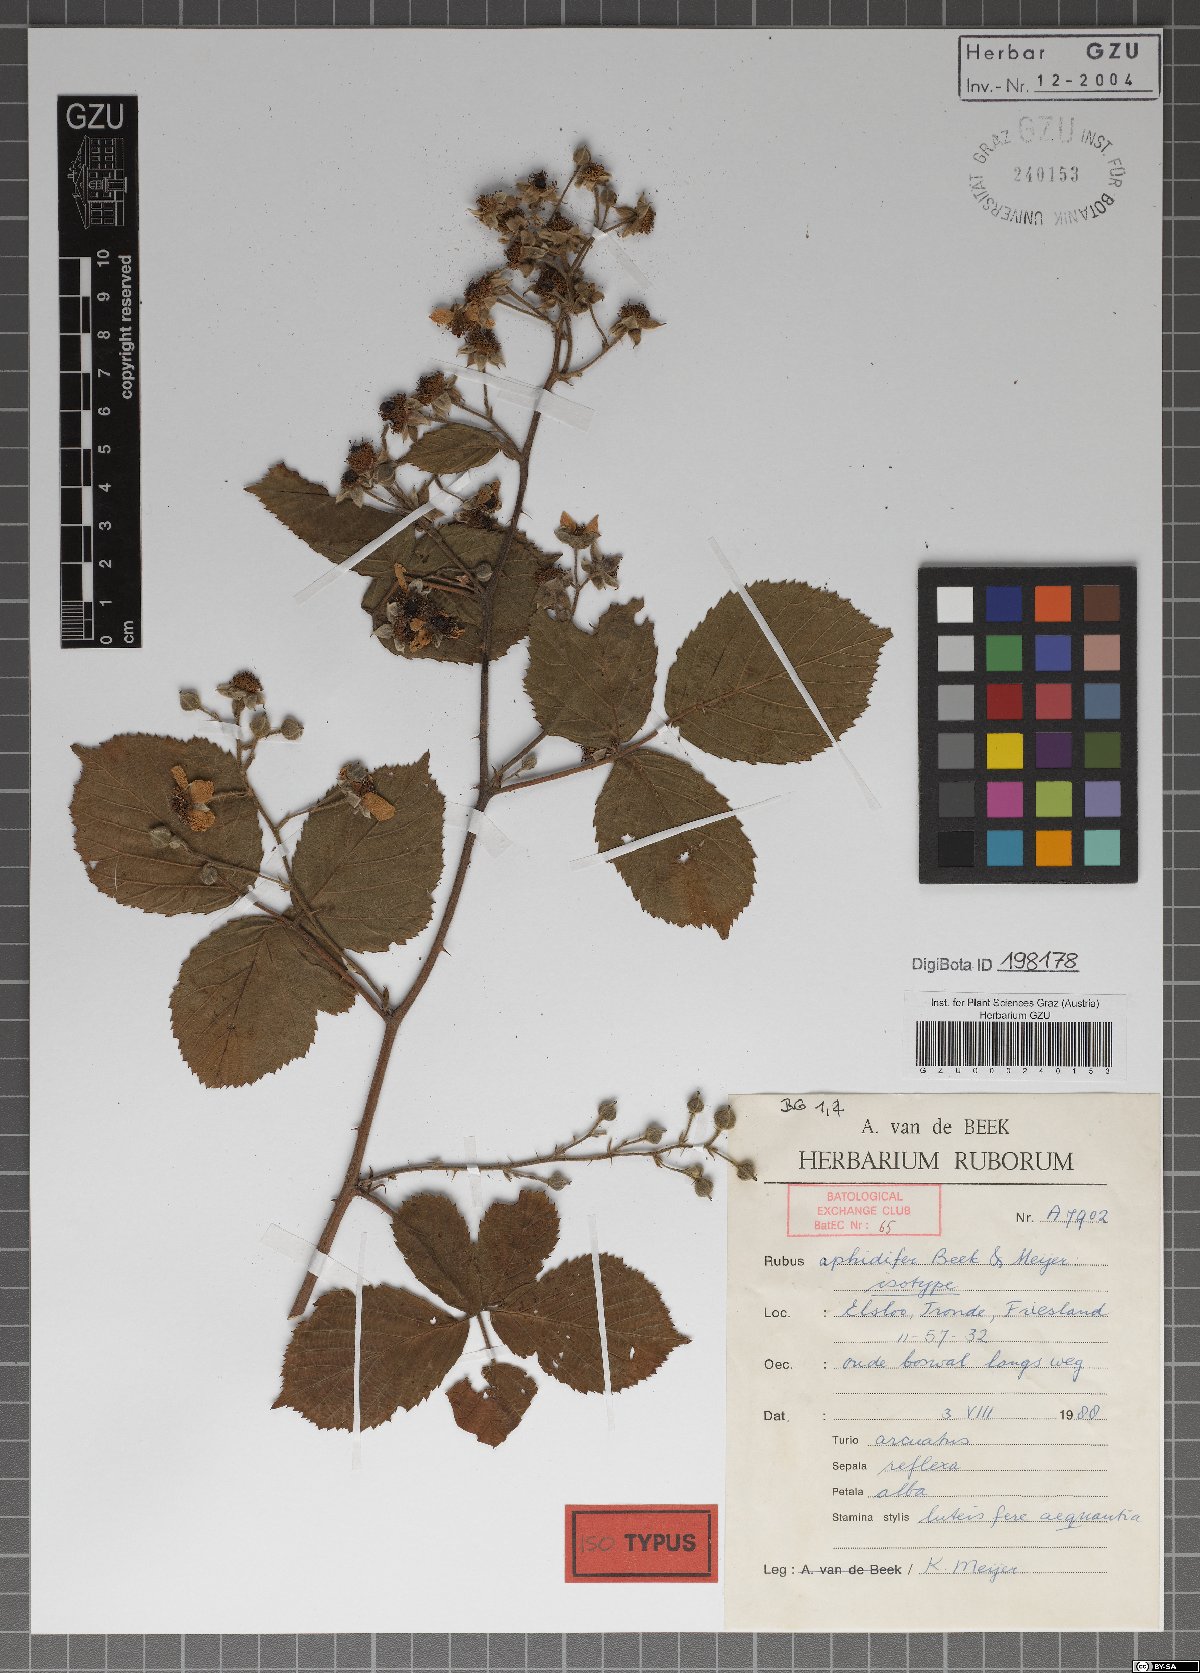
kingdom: Plantae
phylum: Tracheophyta
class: Magnoliopsida
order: Rosales
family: Rosaceae
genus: Rubus
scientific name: Rubus aphidifer
